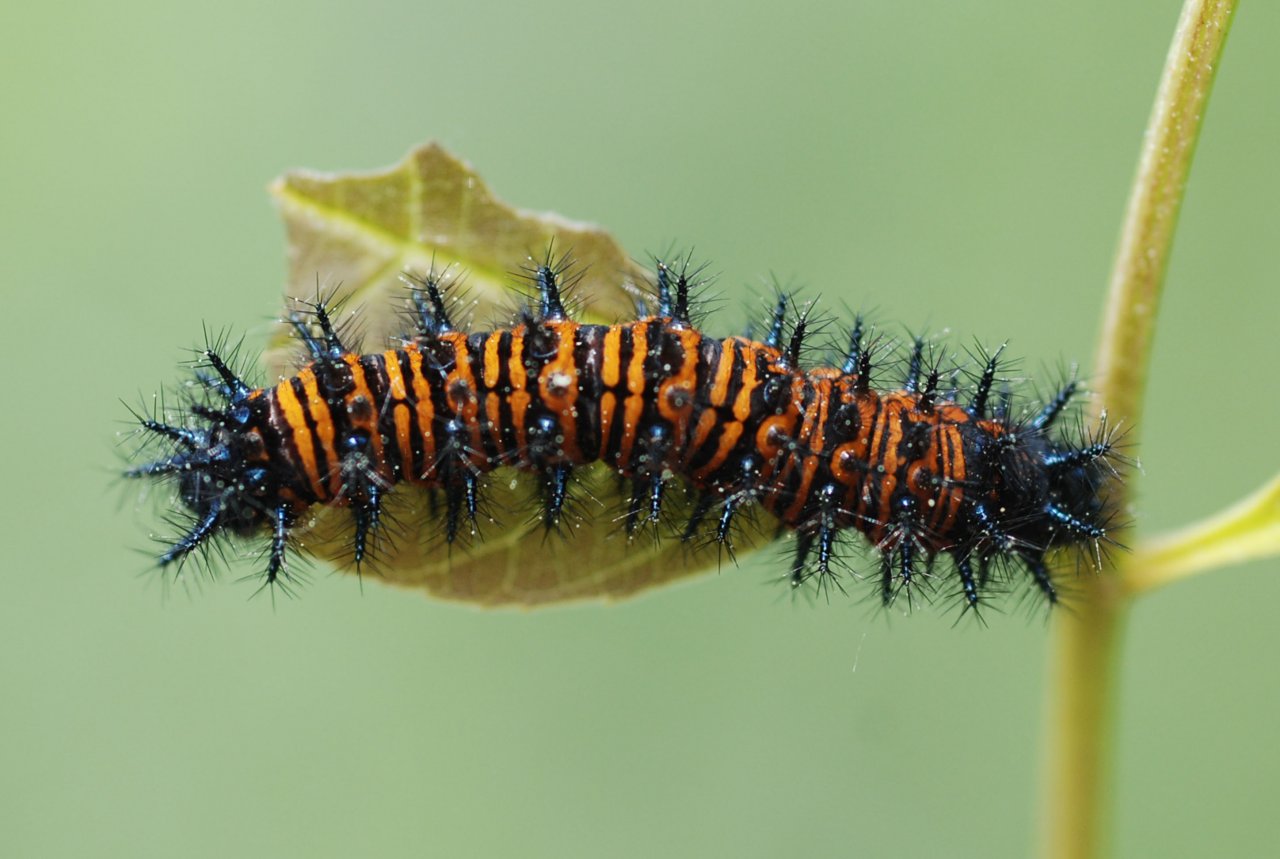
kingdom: Animalia
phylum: Arthropoda
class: Insecta
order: Lepidoptera
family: Nymphalidae
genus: Euphydryas
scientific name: Euphydryas phaeton
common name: Baltimore Checkerspot
